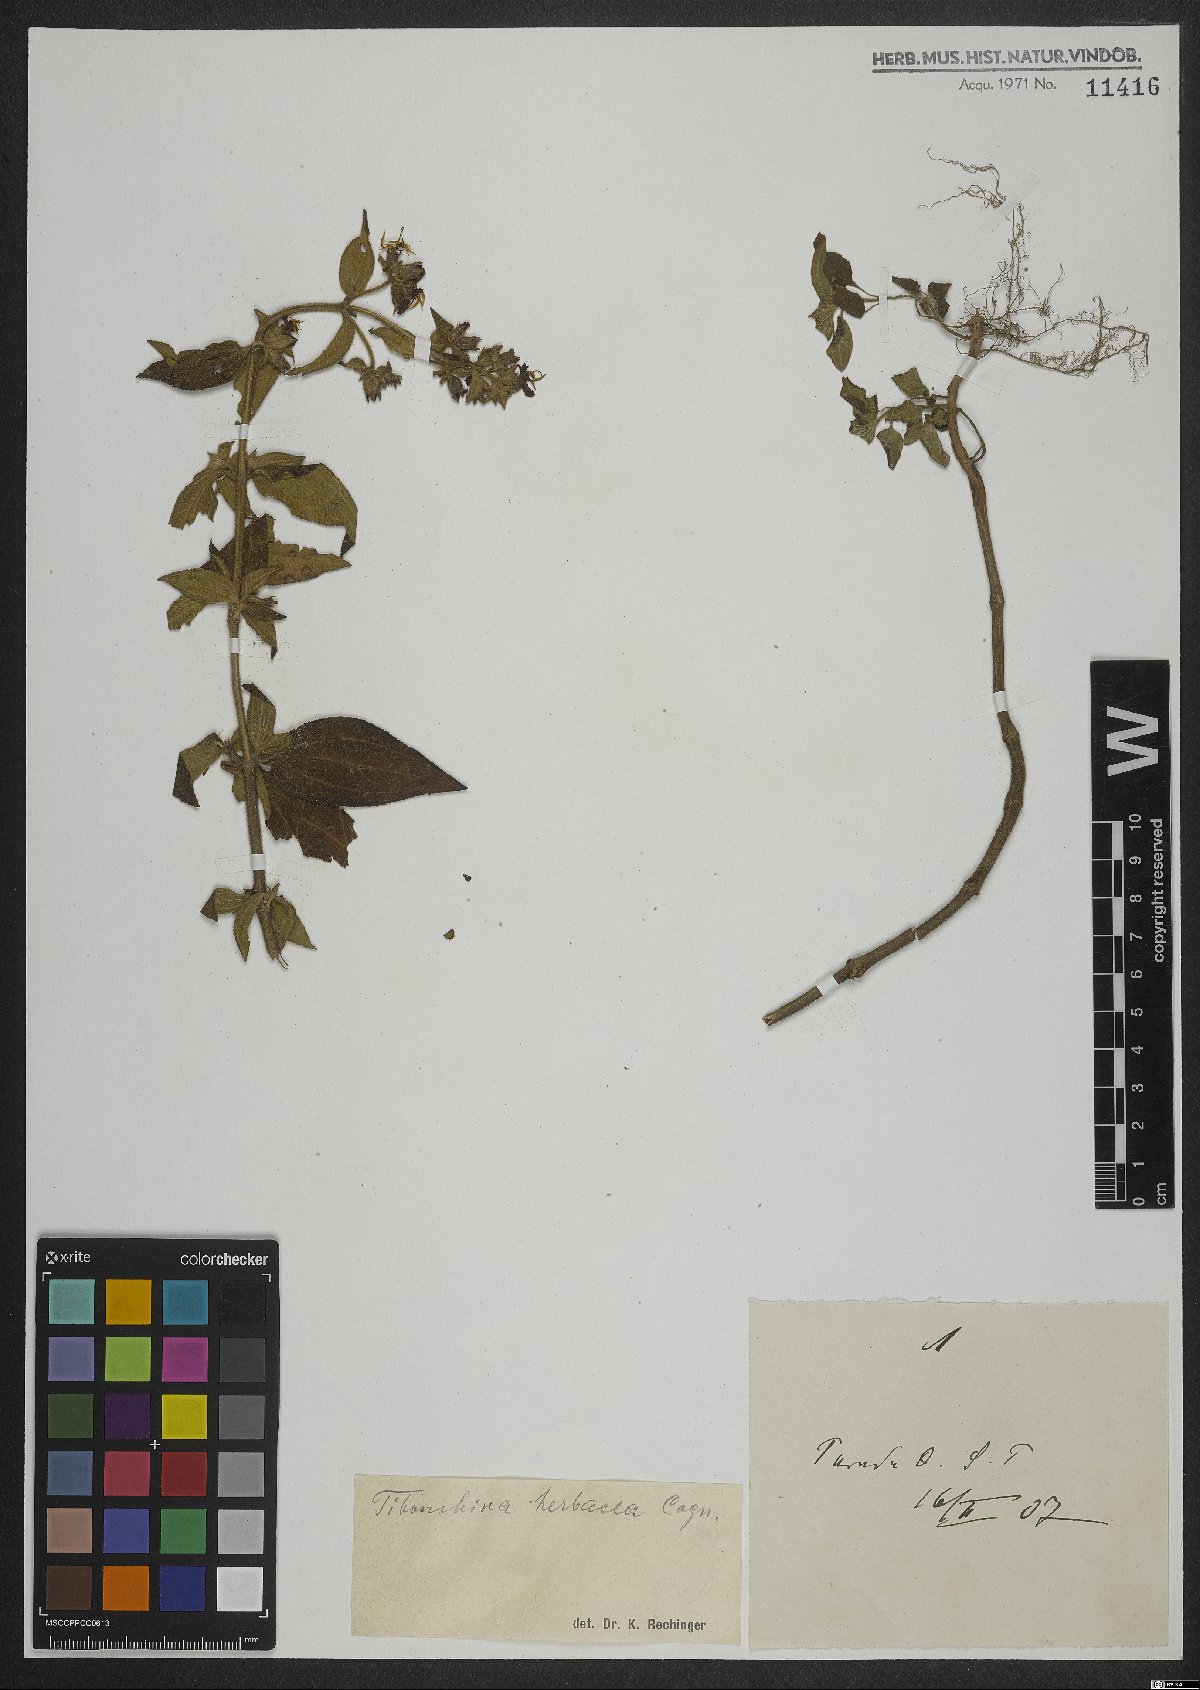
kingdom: Plantae
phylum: Tracheophyta
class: Magnoliopsida
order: Myrtales
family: Melastomataceae
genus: Chaetogastra
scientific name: Chaetogastra herbacea
